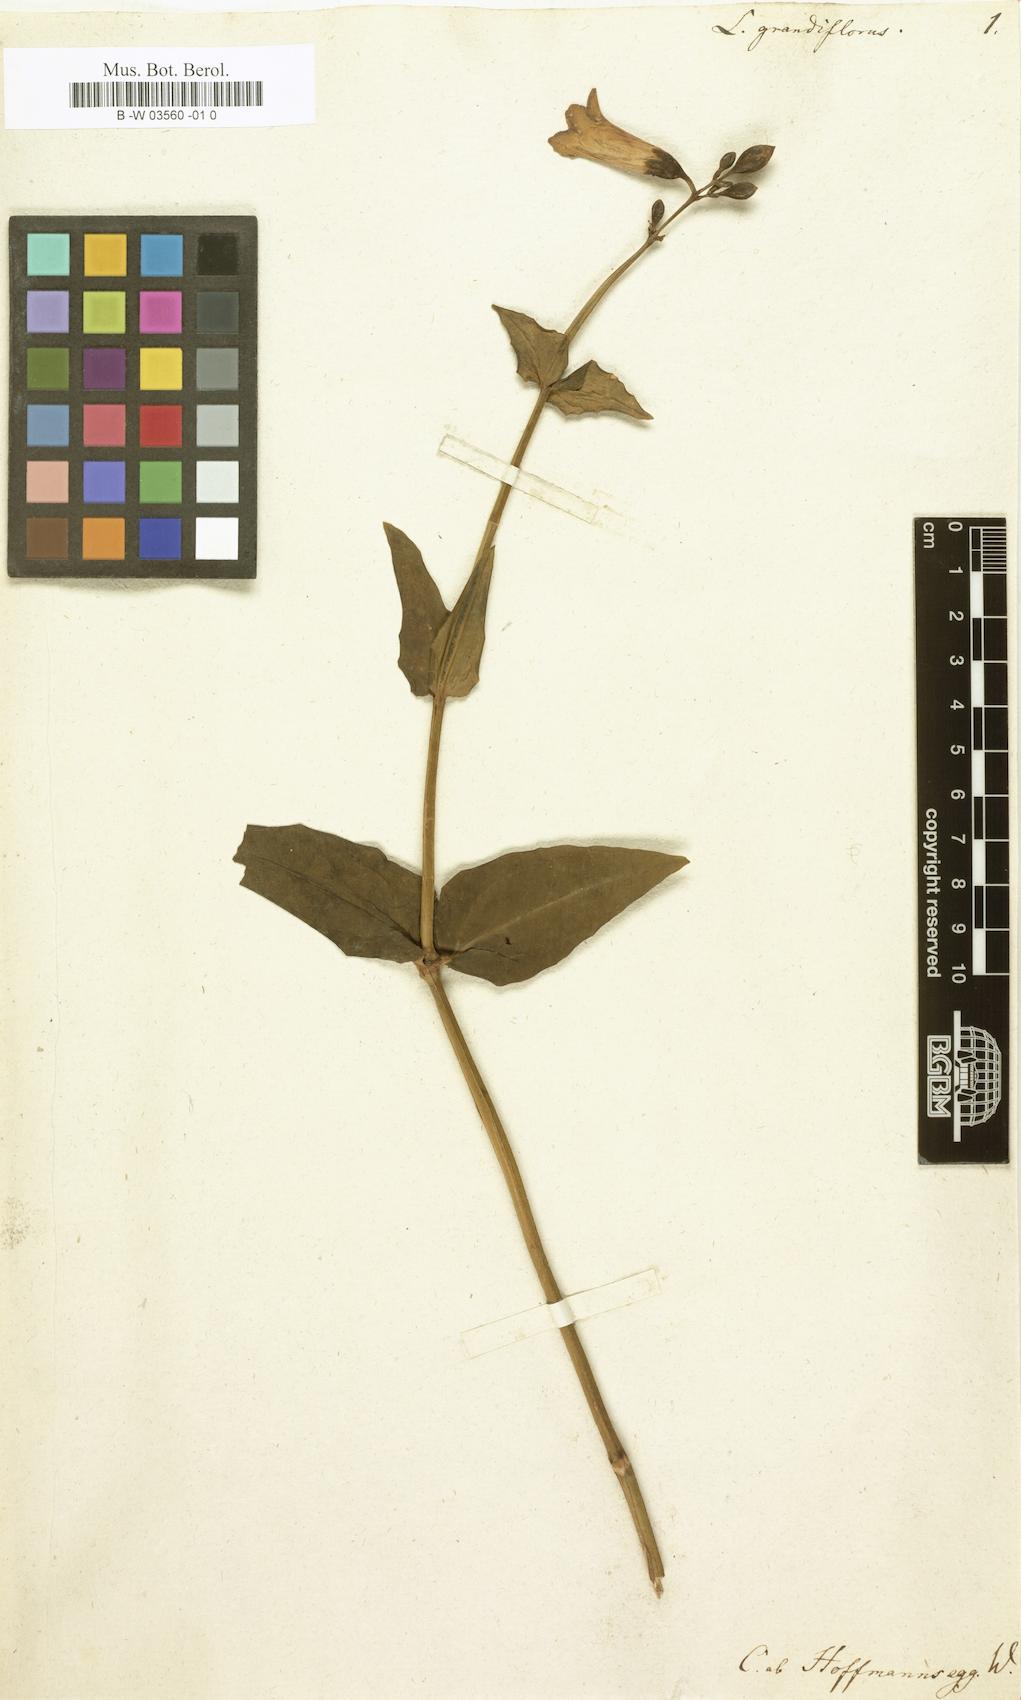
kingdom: Plantae
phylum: Tracheophyta
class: Magnoliopsida
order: Gentianales
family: Gentianaceae
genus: Chelonanthus
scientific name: Chelonanthus
